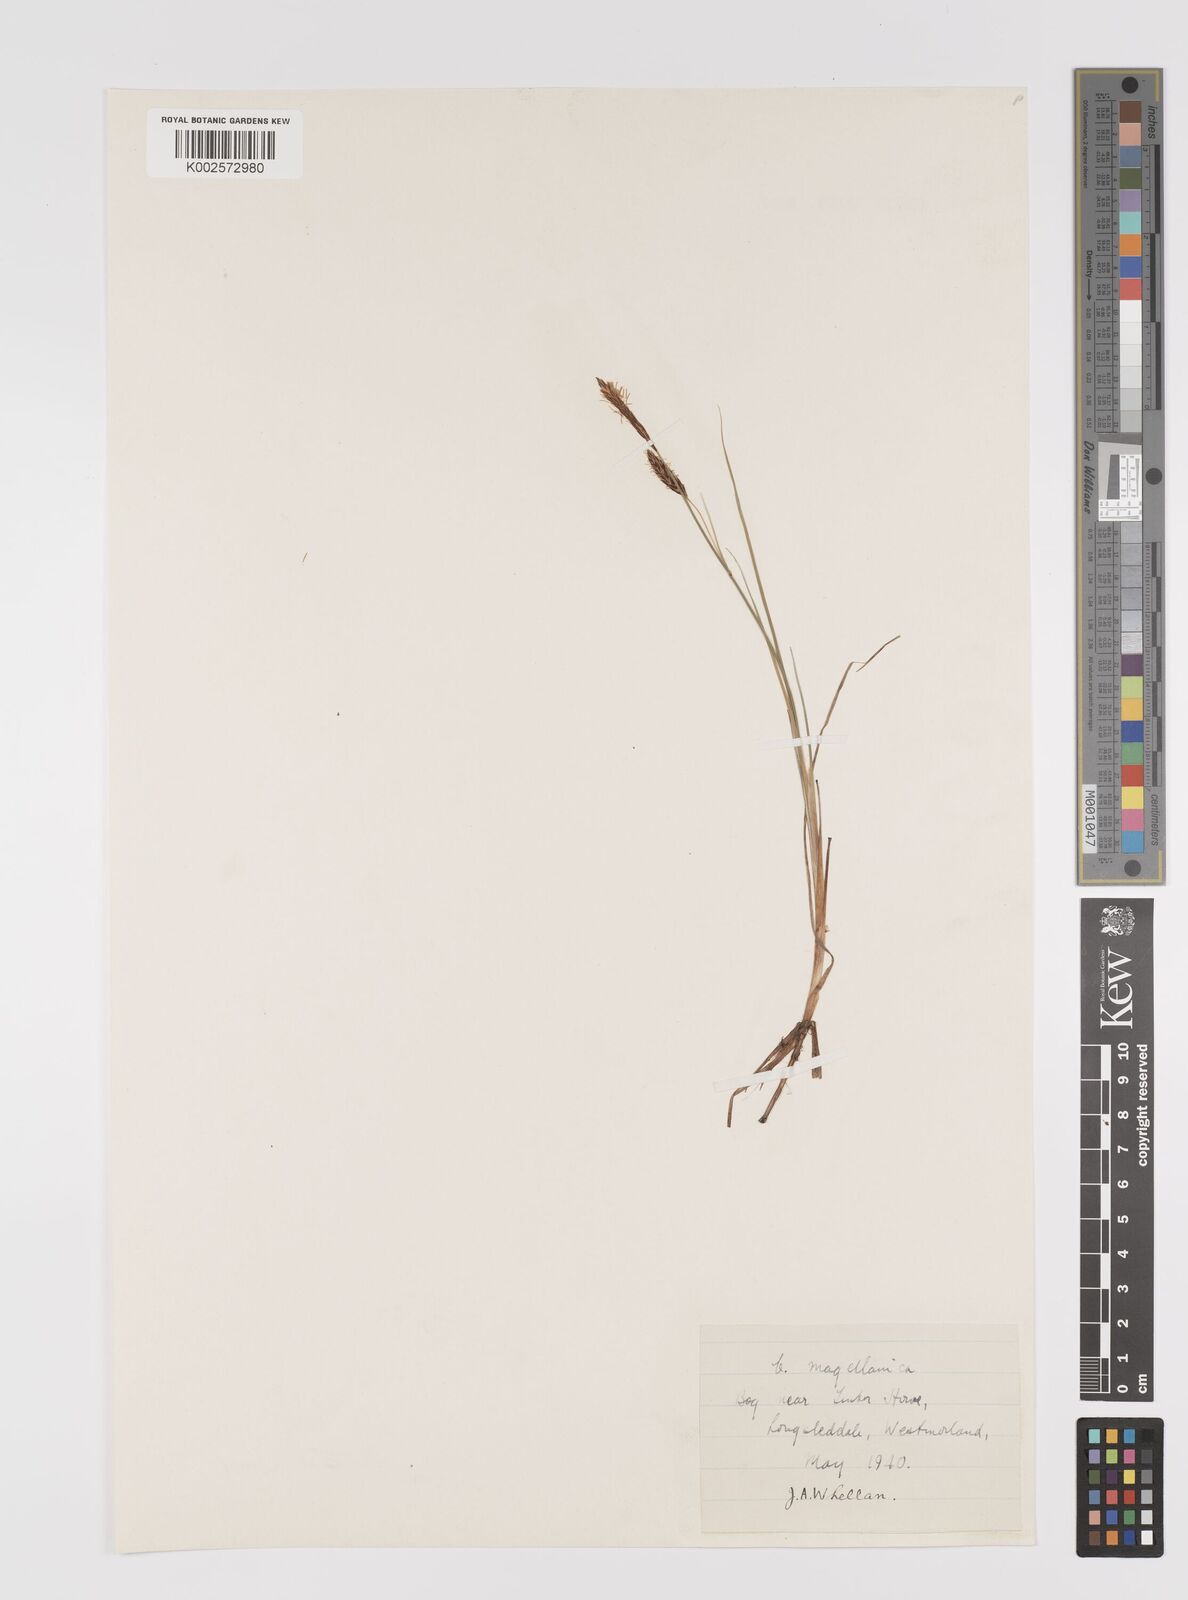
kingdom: Plantae
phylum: Tracheophyta
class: Liliopsida
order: Poales
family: Cyperaceae
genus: Carex
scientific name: Carex limosa
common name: Bog sedge
